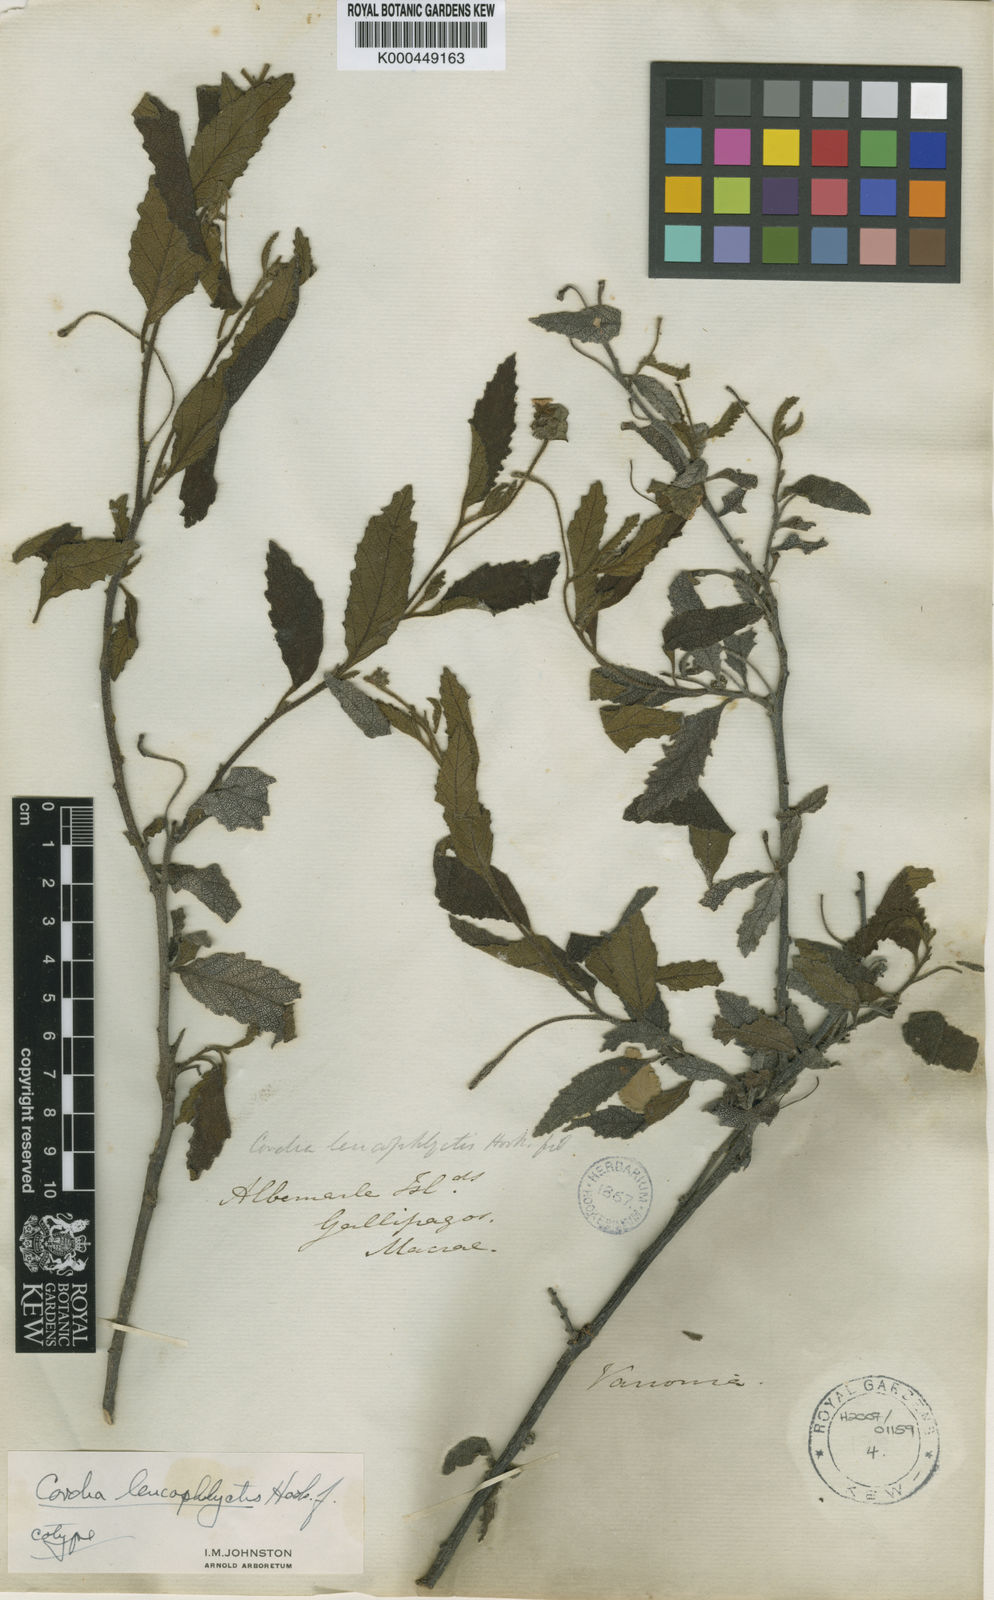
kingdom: Plantae
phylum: Tracheophyta
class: Magnoliopsida
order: Boraginales
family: Cordiaceae
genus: Varronia
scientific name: Varronia leucophlyctis
